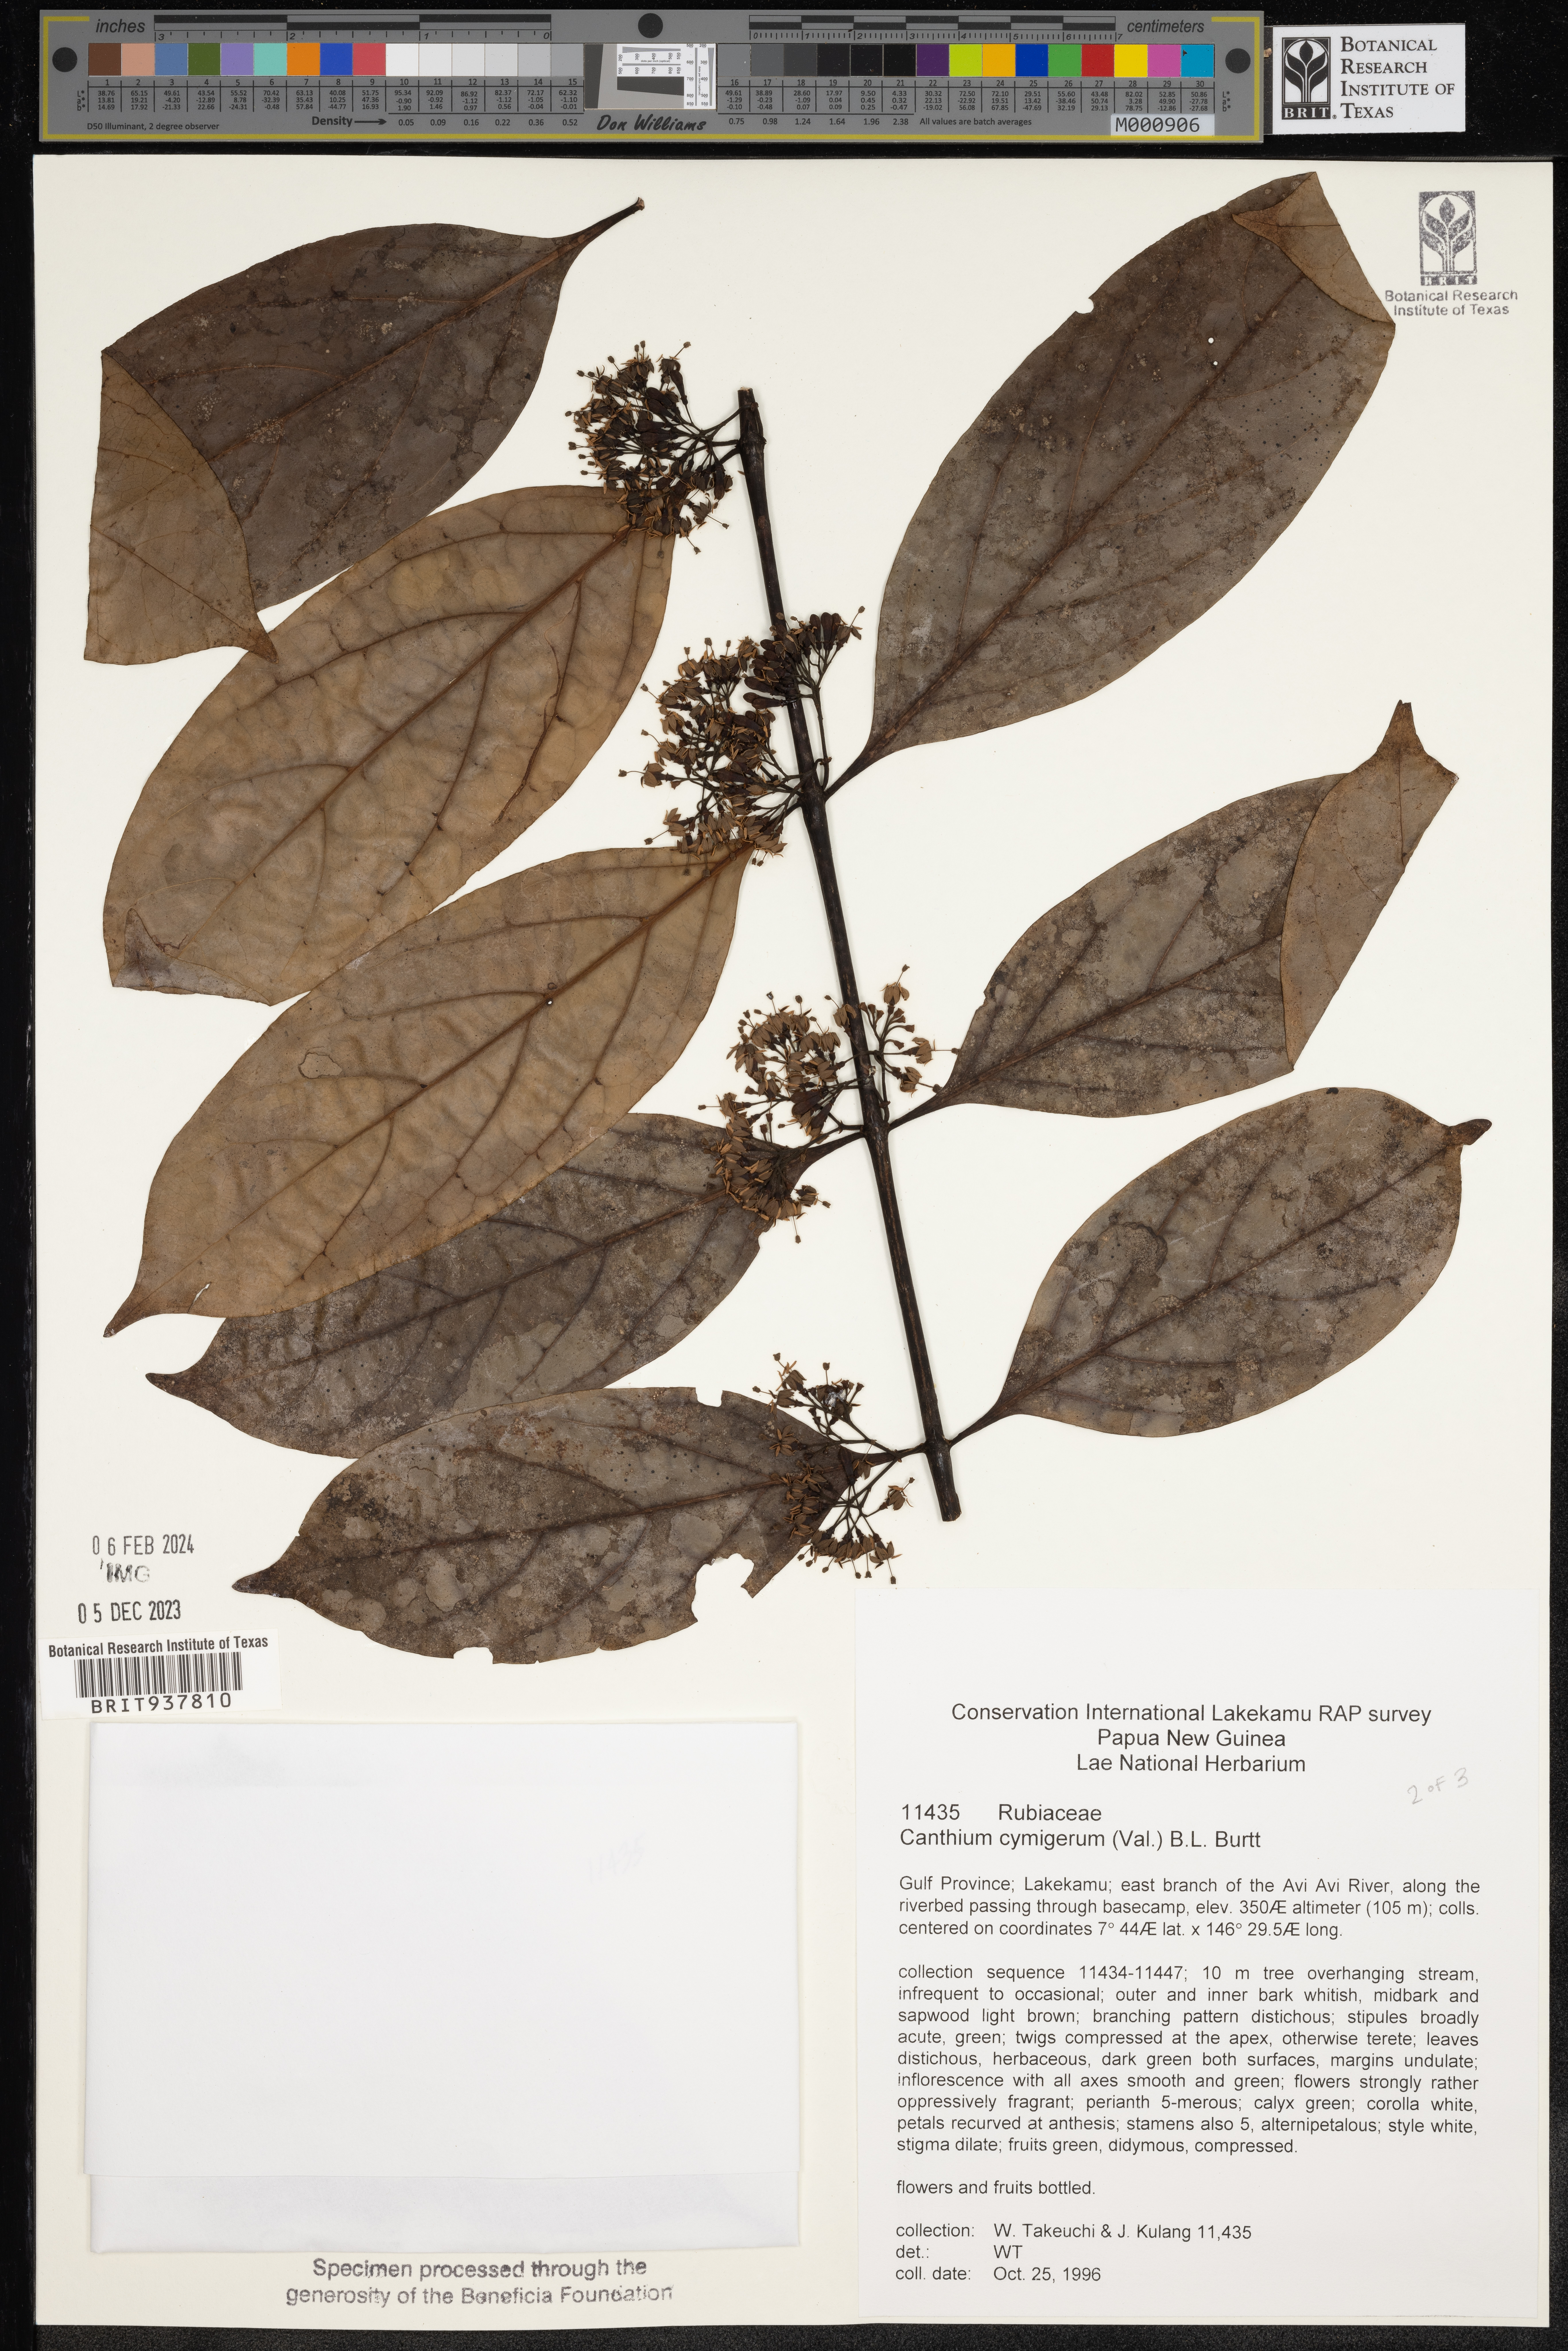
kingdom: Plantae
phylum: Tracheophyta
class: Magnoliopsida
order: Gentianales
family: Rubiaceae
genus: Canthium
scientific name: Canthium
